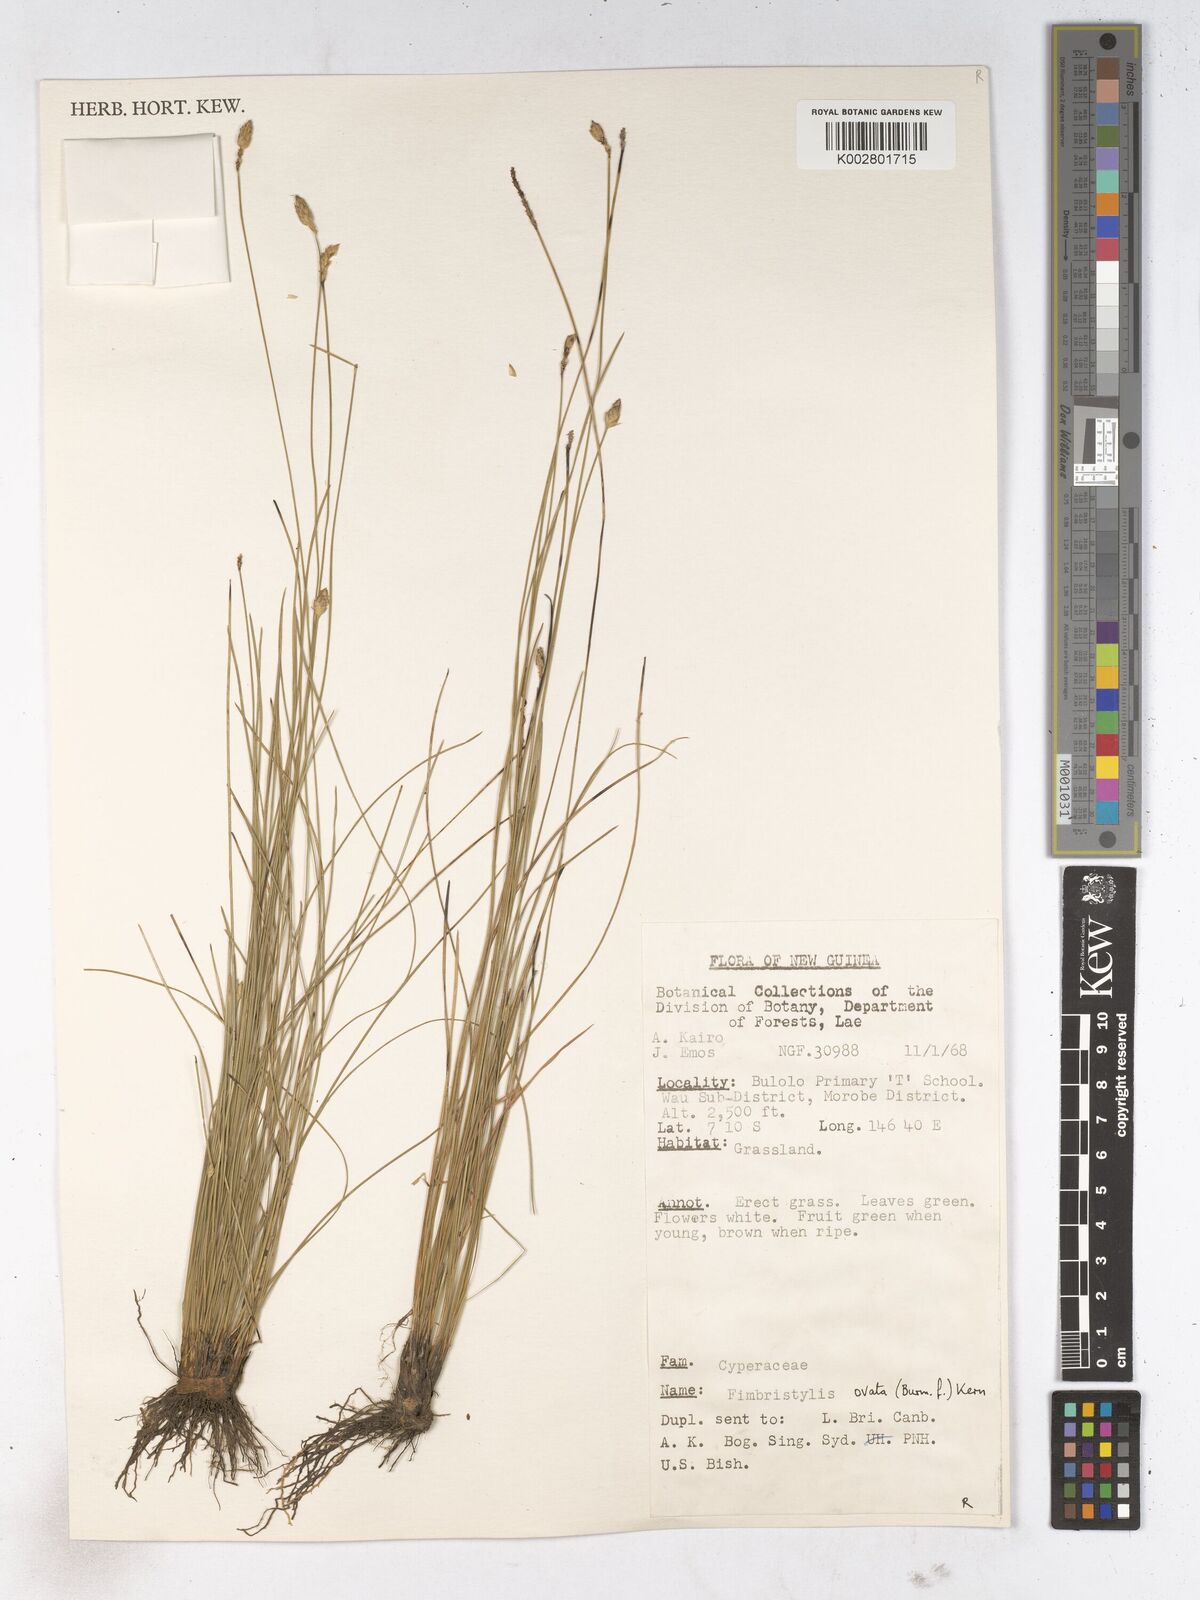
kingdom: Plantae
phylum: Tracheophyta
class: Liliopsida
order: Poales
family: Cyperaceae
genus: Abildgaardia
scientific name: Abildgaardia ovata
